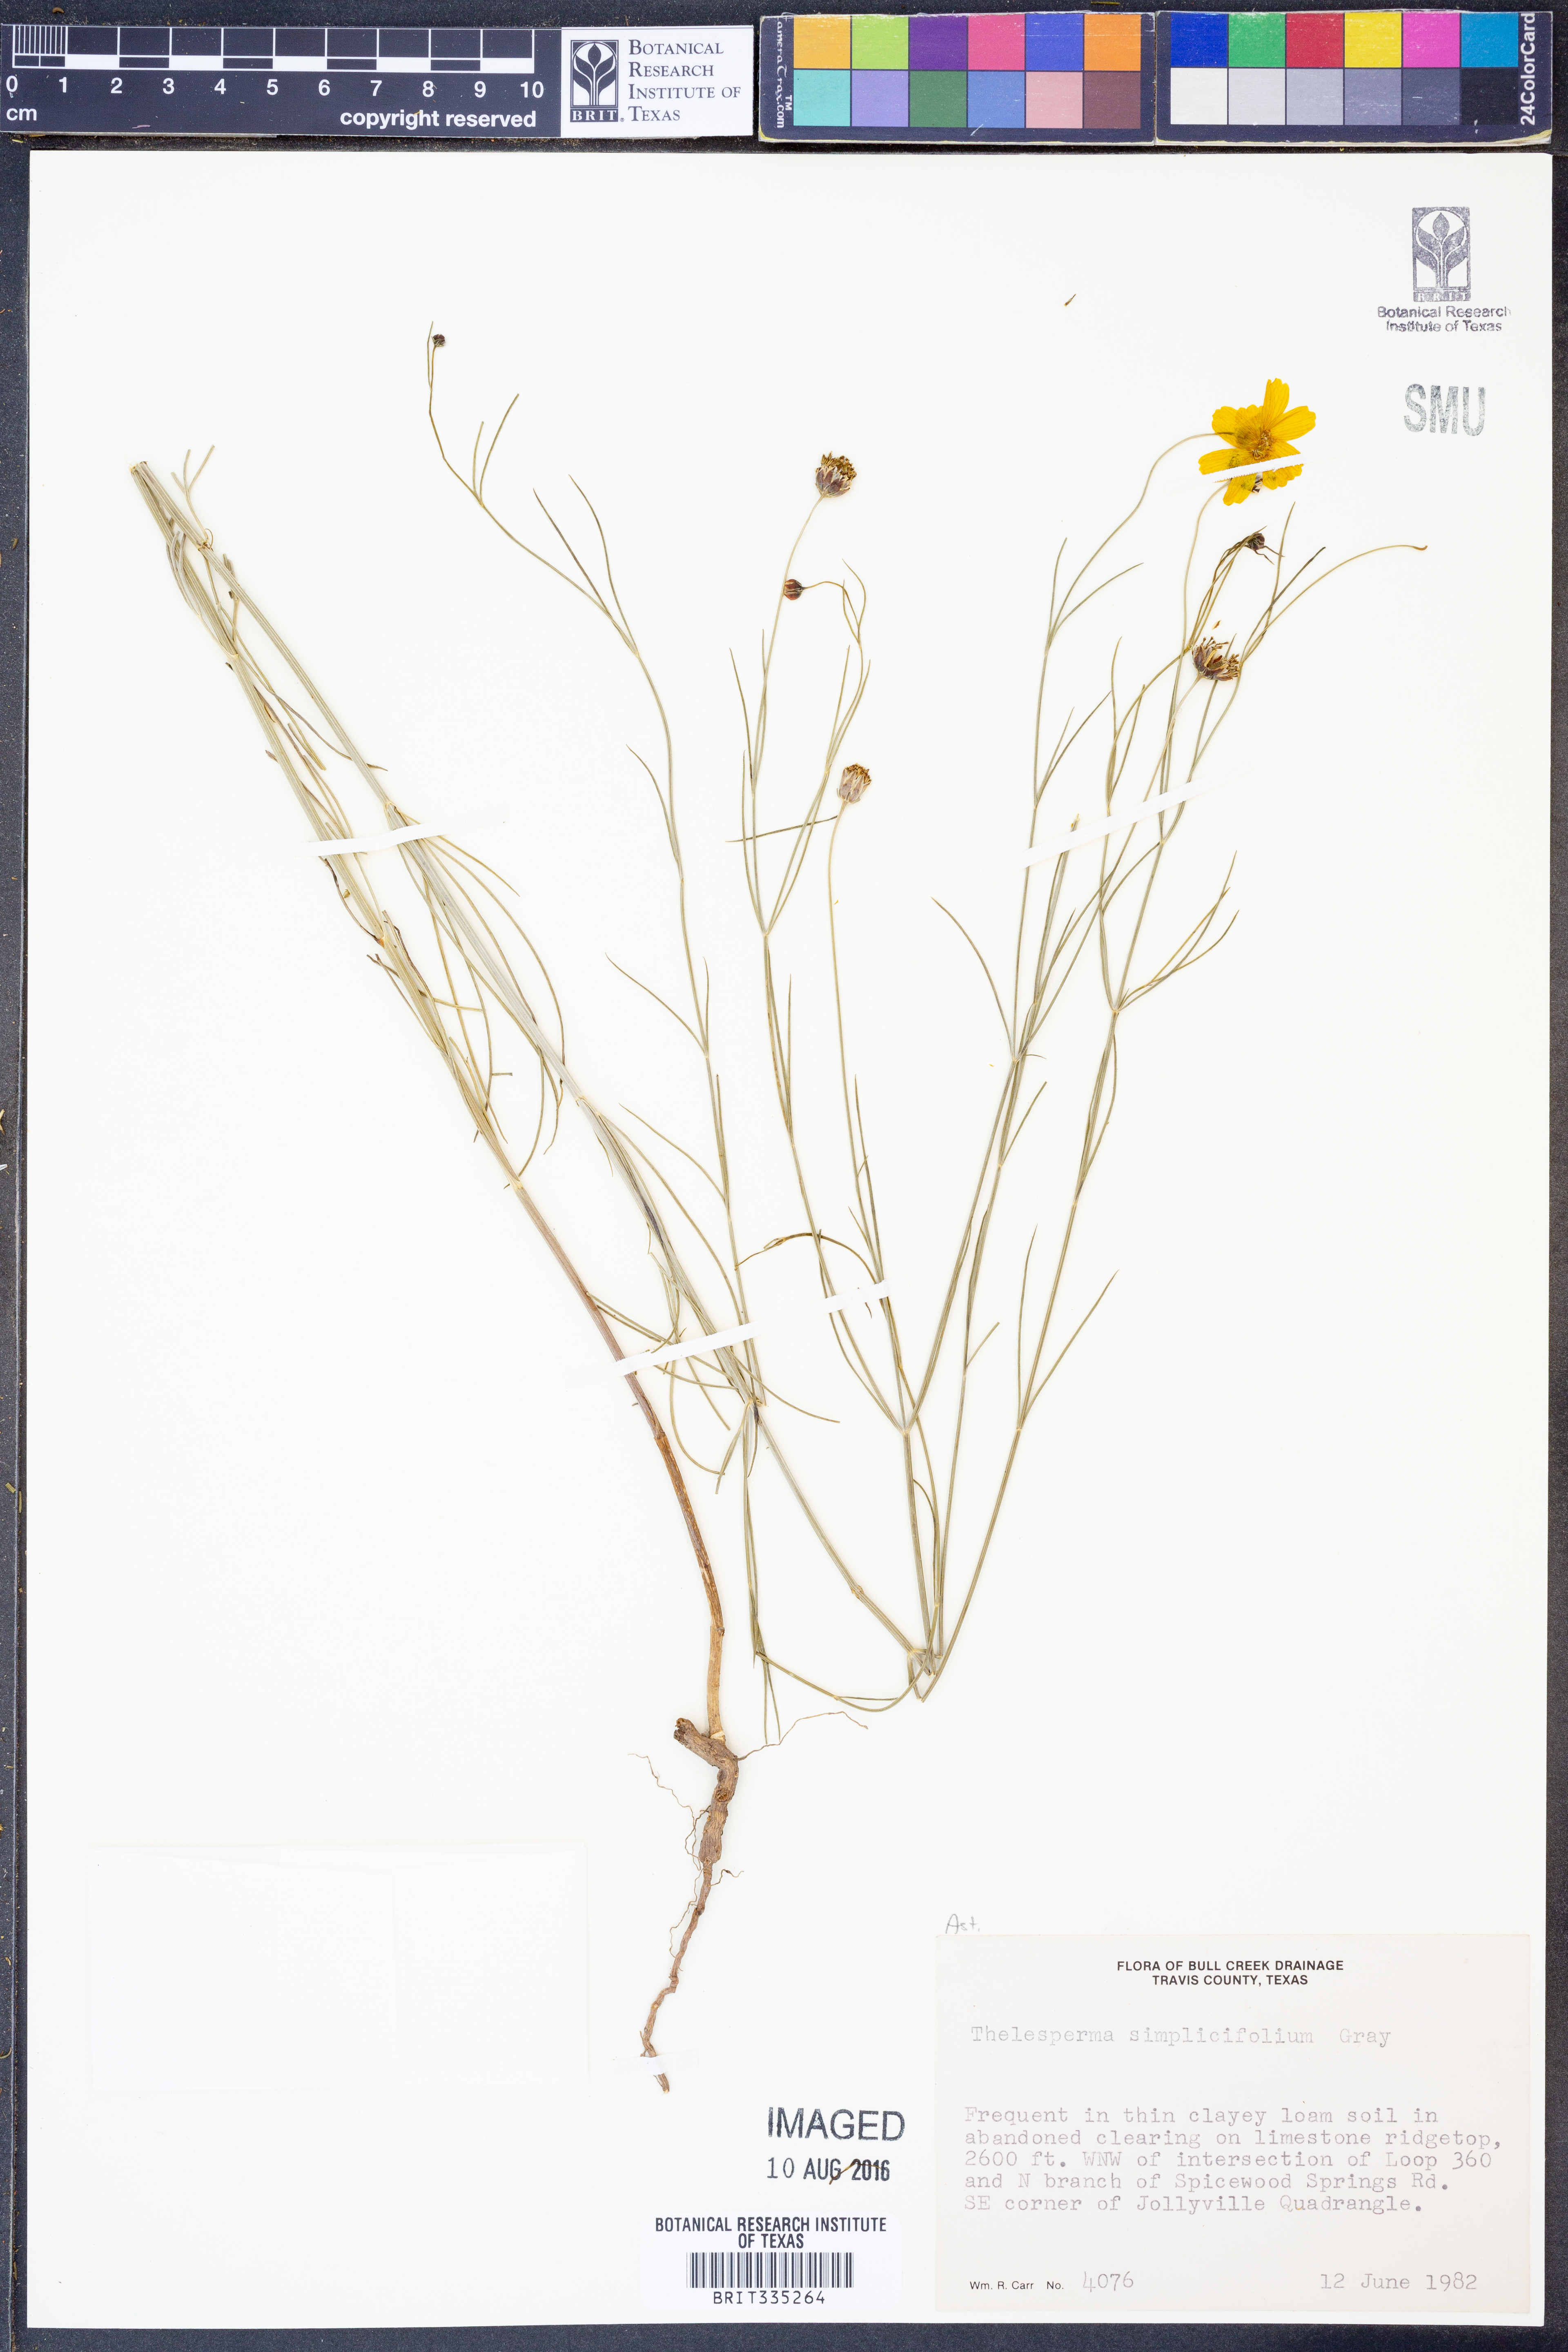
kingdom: Plantae
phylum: Tracheophyta
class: Magnoliopsida
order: Asterales
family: Asteraceae
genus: Thelesperma
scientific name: Thelesperma simplicifolium
